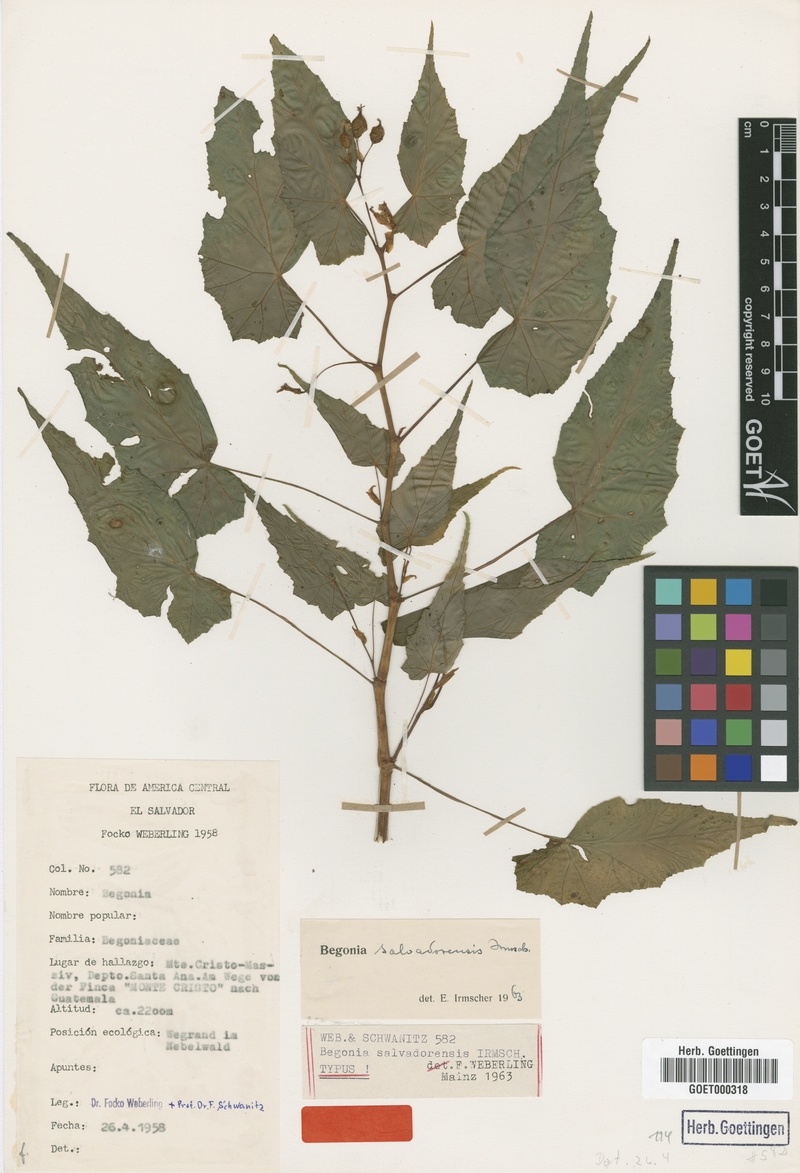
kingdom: Plantae
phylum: Tracheophyta
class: Magnoliopsida
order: Cucurbitales
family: Begoniaceae
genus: Begonia
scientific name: Begonia salvadorensis
